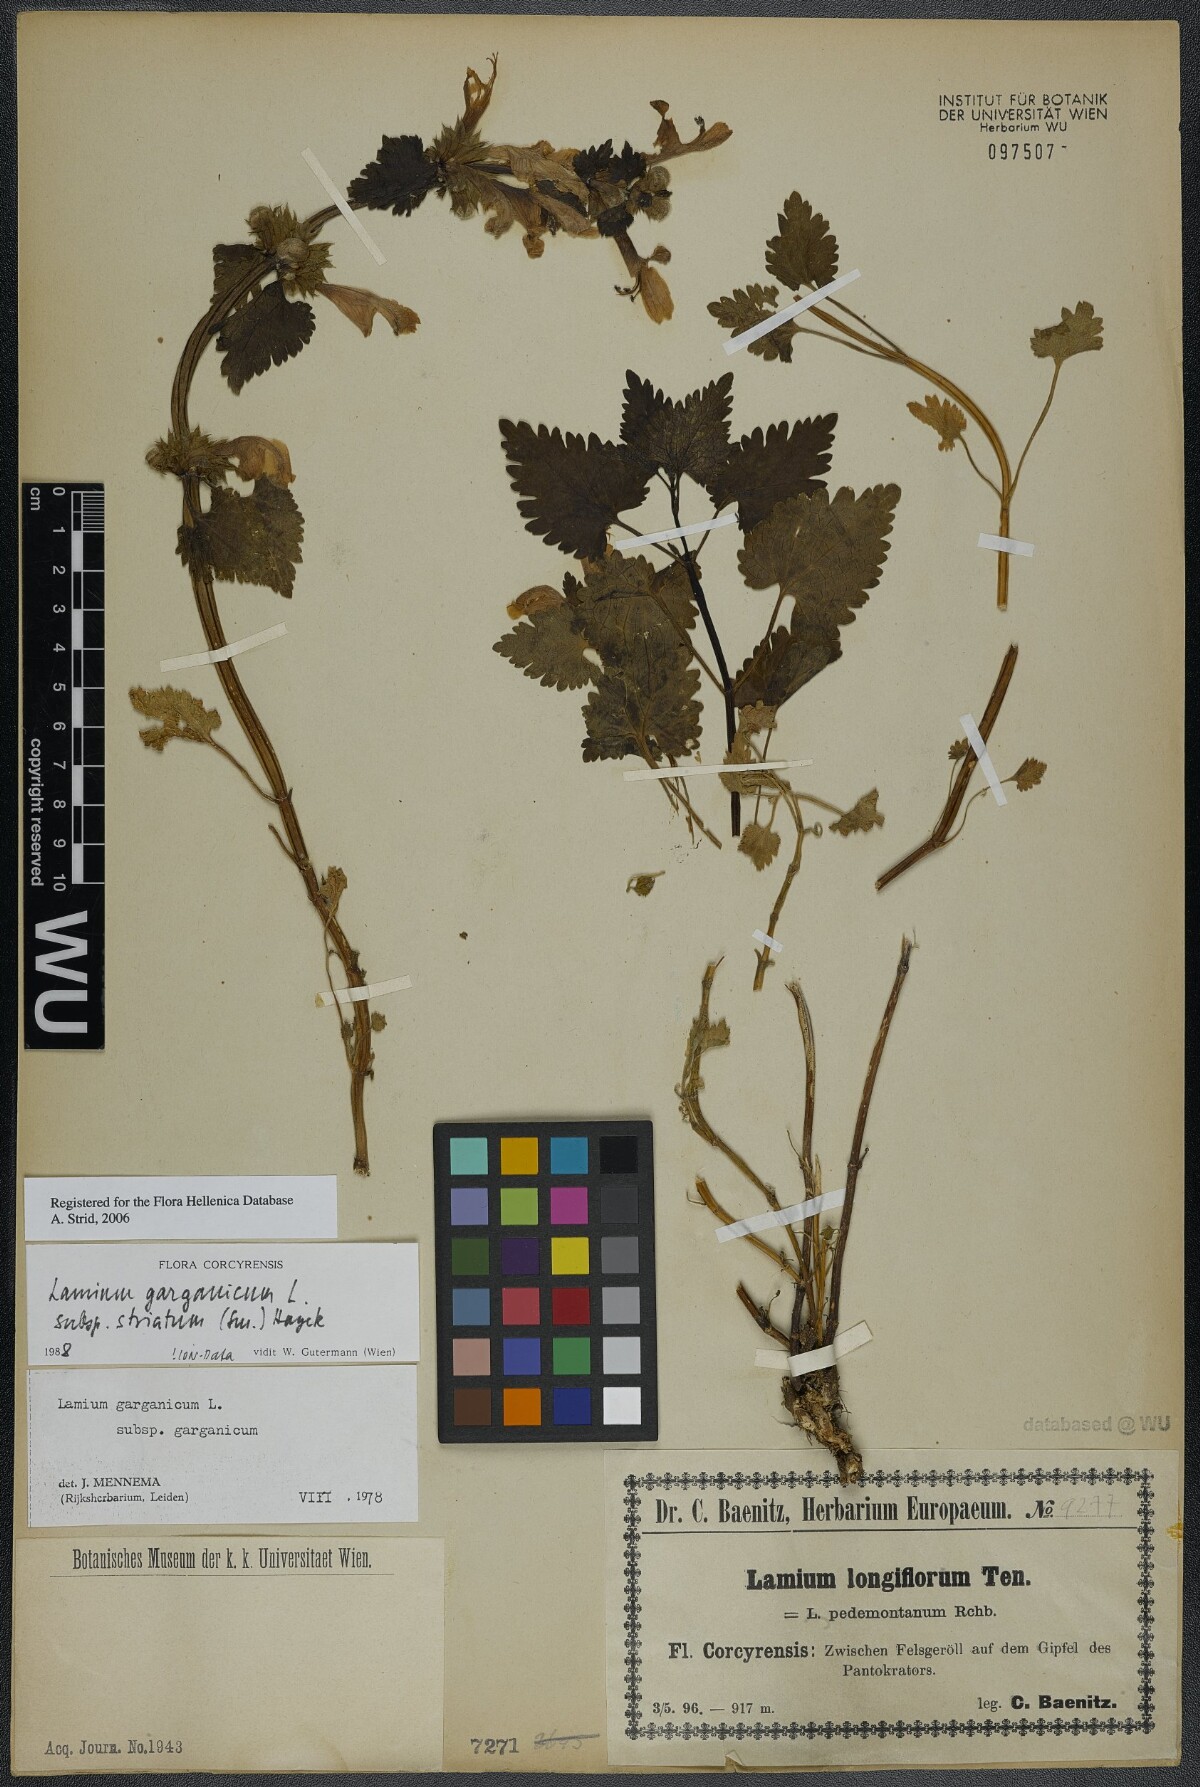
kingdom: Plantae
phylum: Tracheophyta
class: Magnoliopsida
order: Lamiales
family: Lamiaceae
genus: Lamium
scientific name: Lamium garganicum
